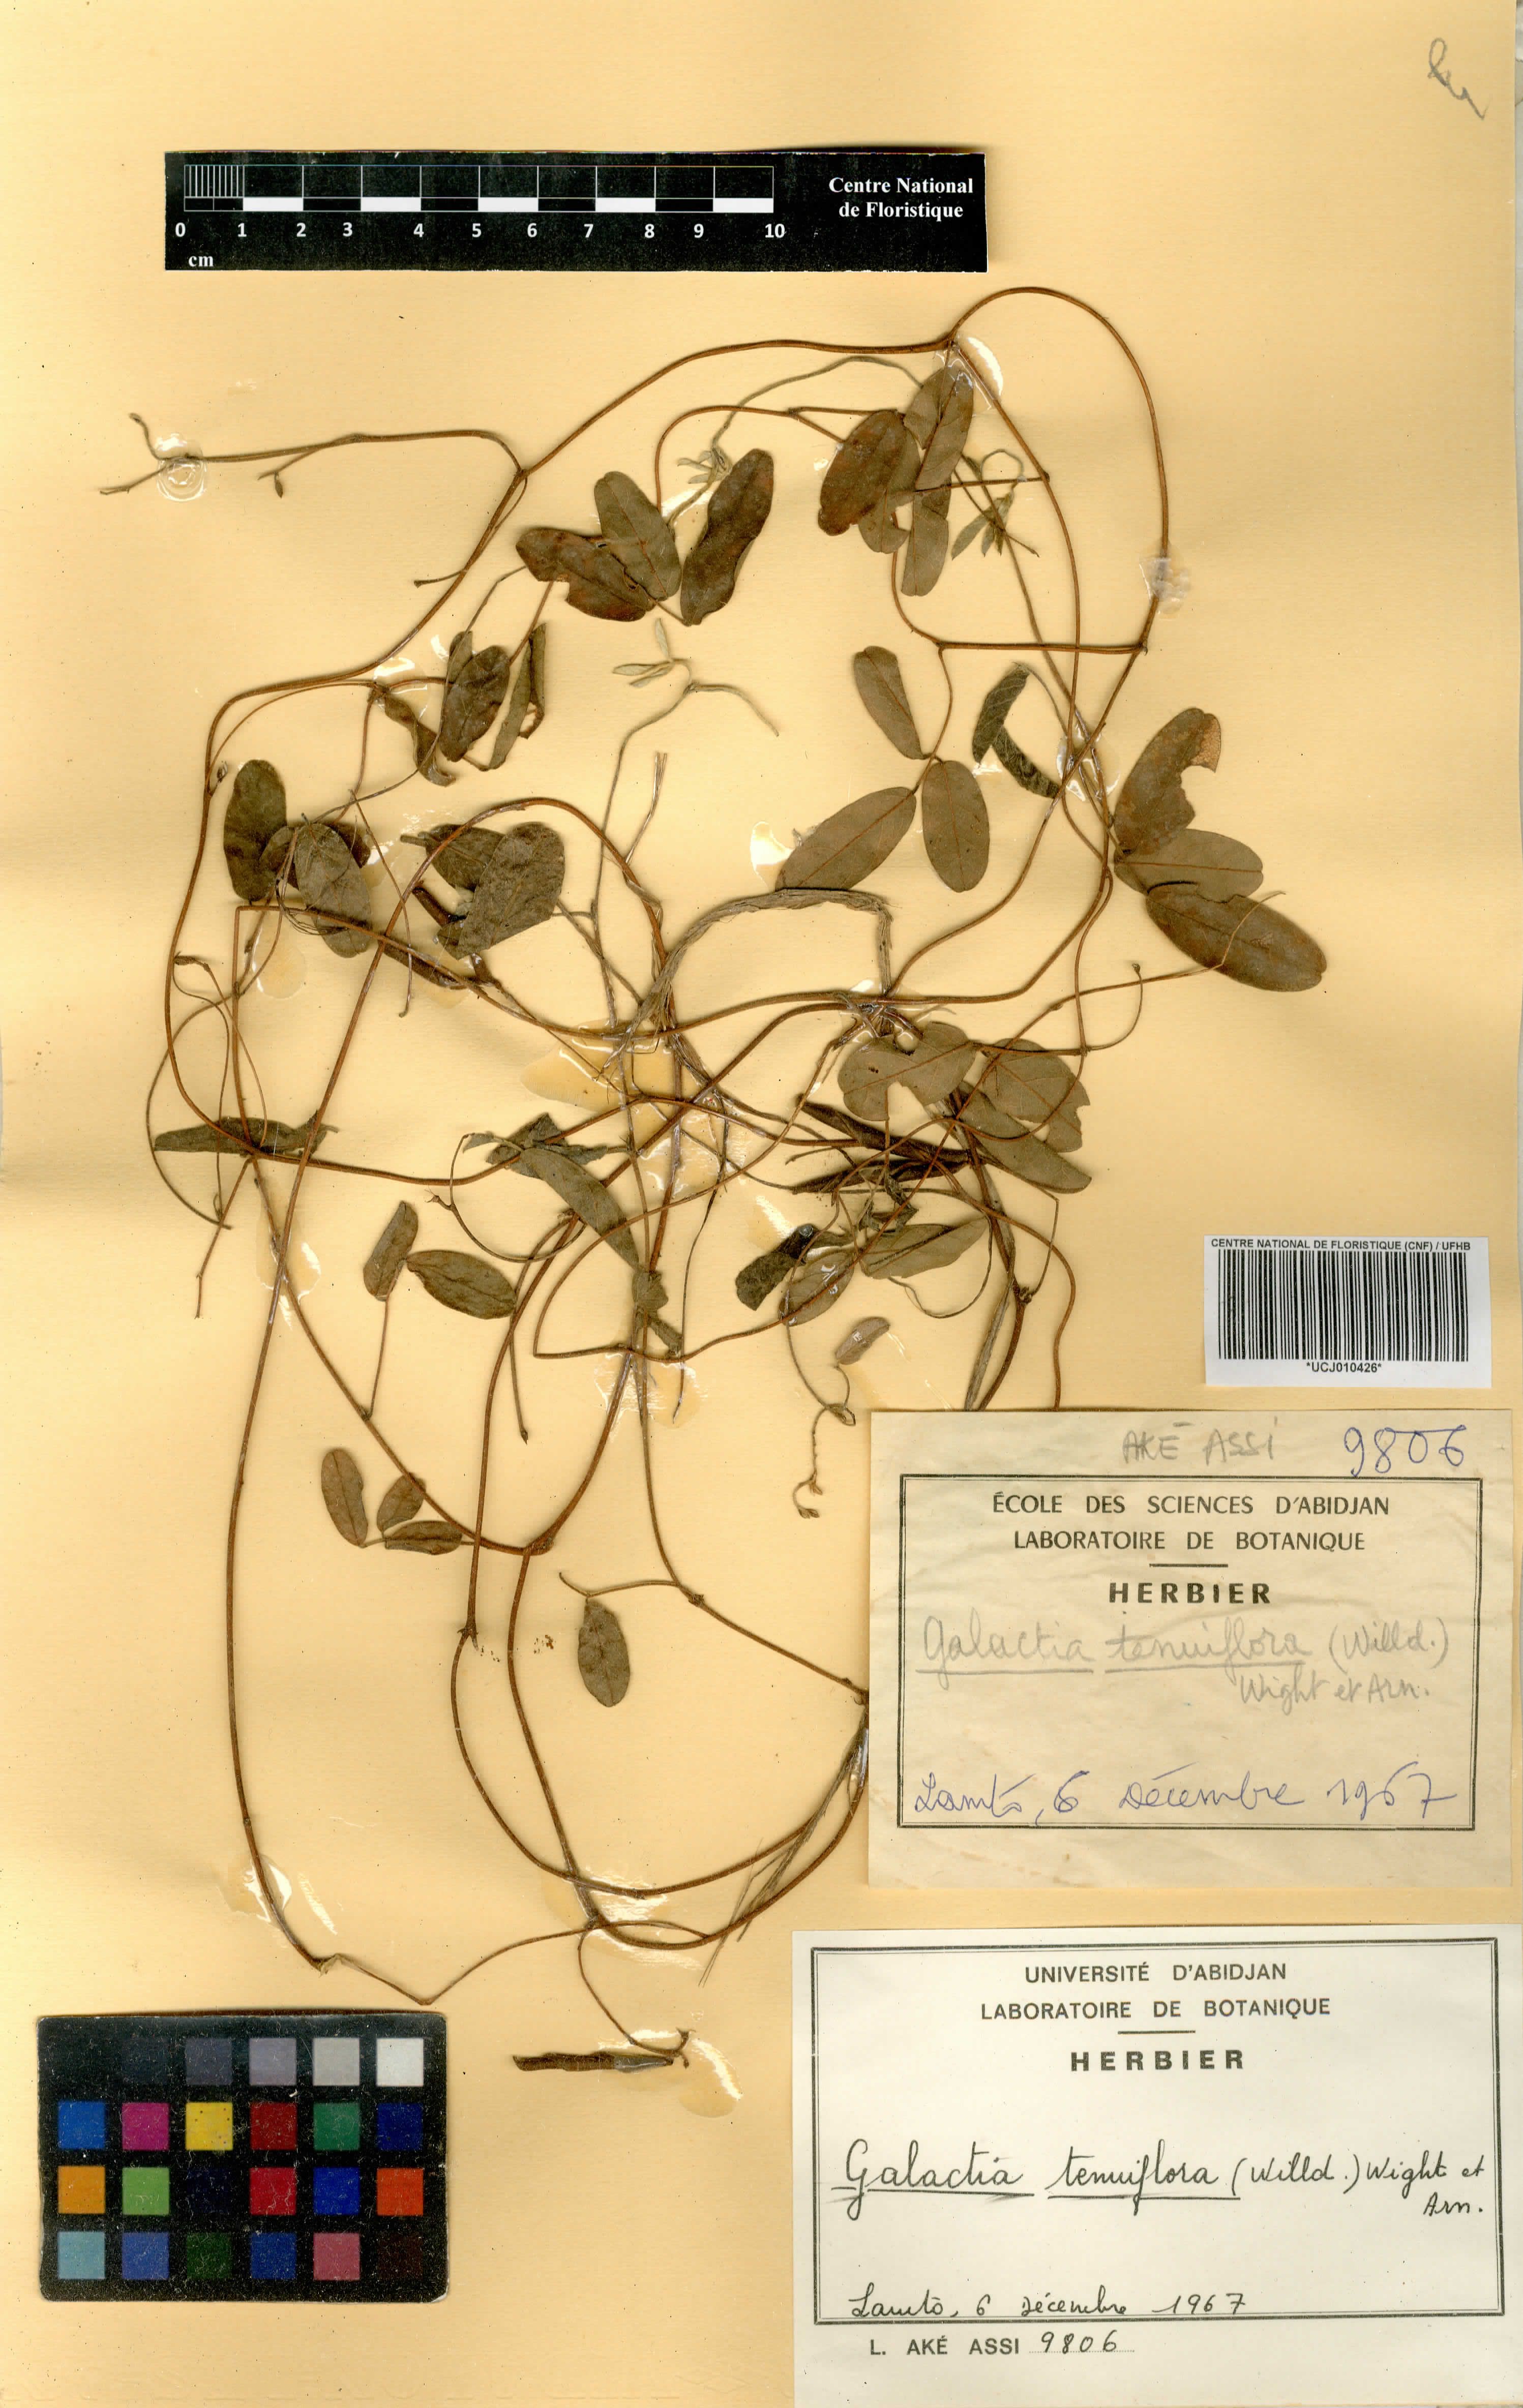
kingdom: Plantae
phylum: Tracheophyta
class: Magnoliopsida
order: Fabales
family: Fabaceae
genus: Galactia
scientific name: Galactia striata
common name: Florida hammock milkpea
